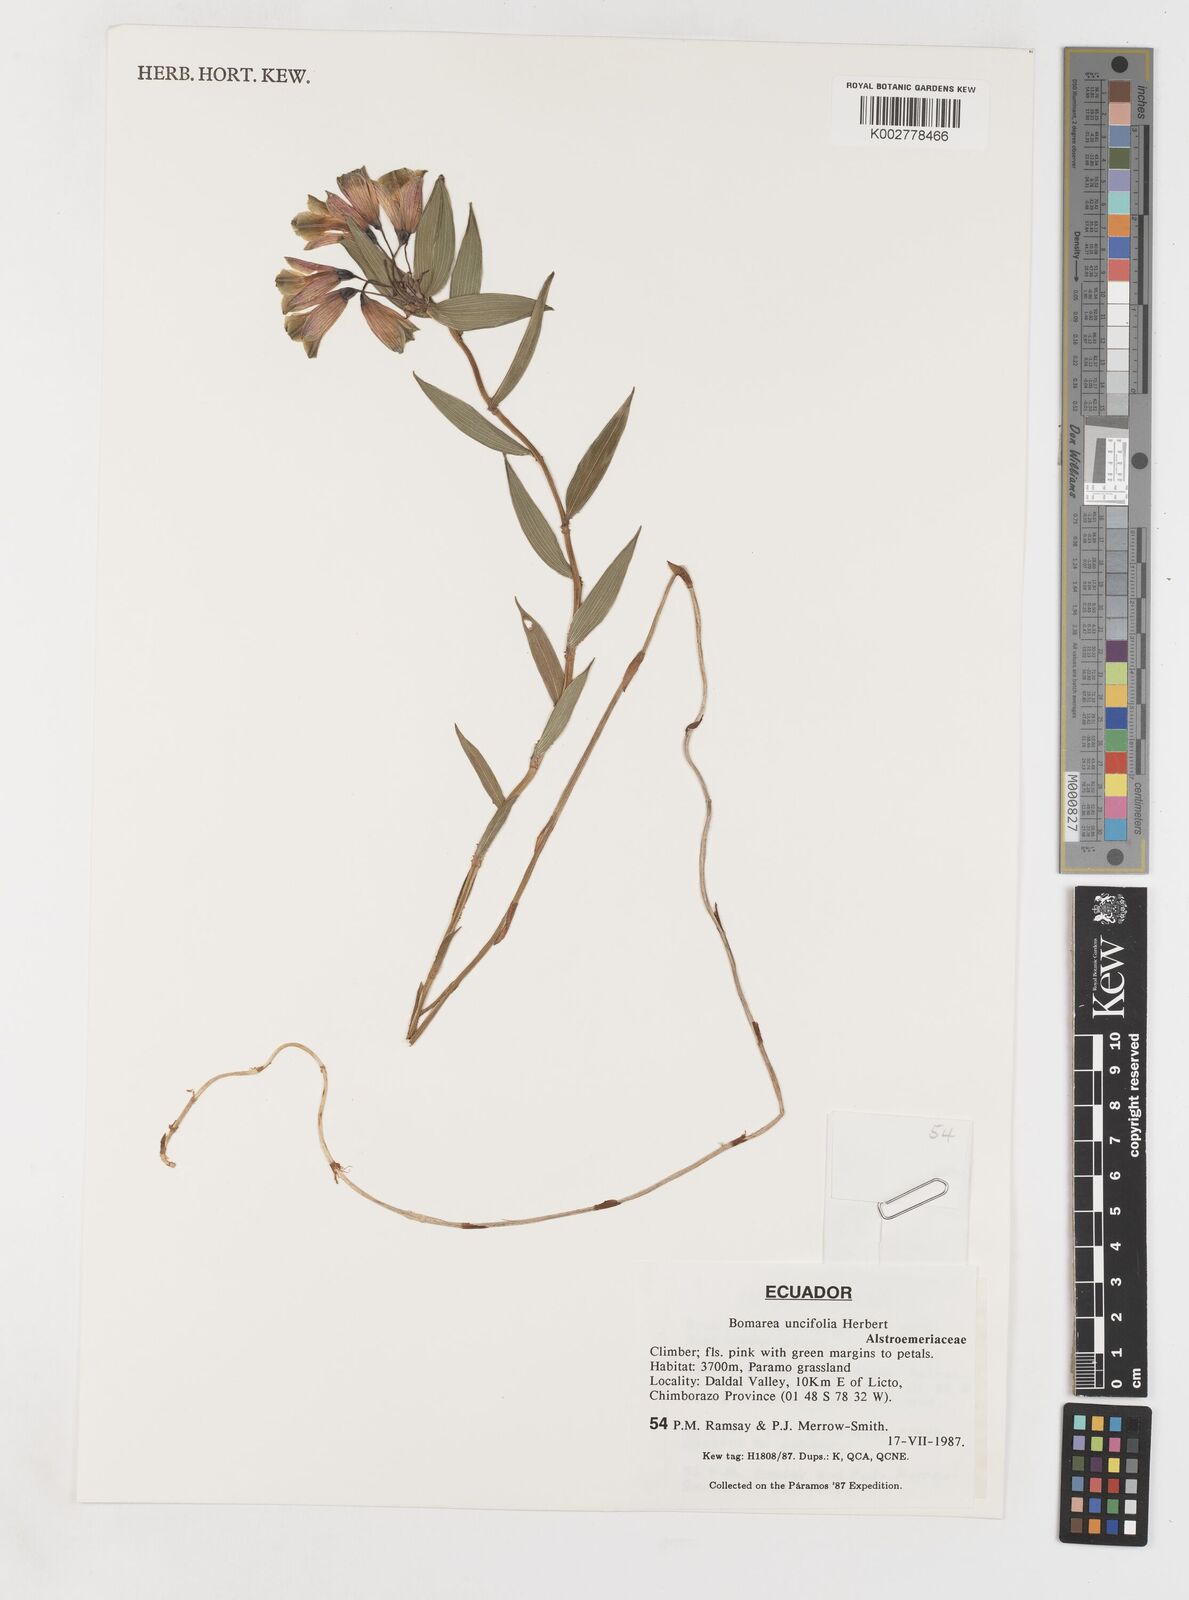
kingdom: Plantae
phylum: Tracheophyta
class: Liliopsida
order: Liliales
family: Alstroemeriaceae
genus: Bomarea
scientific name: Bomarea uncifolia
